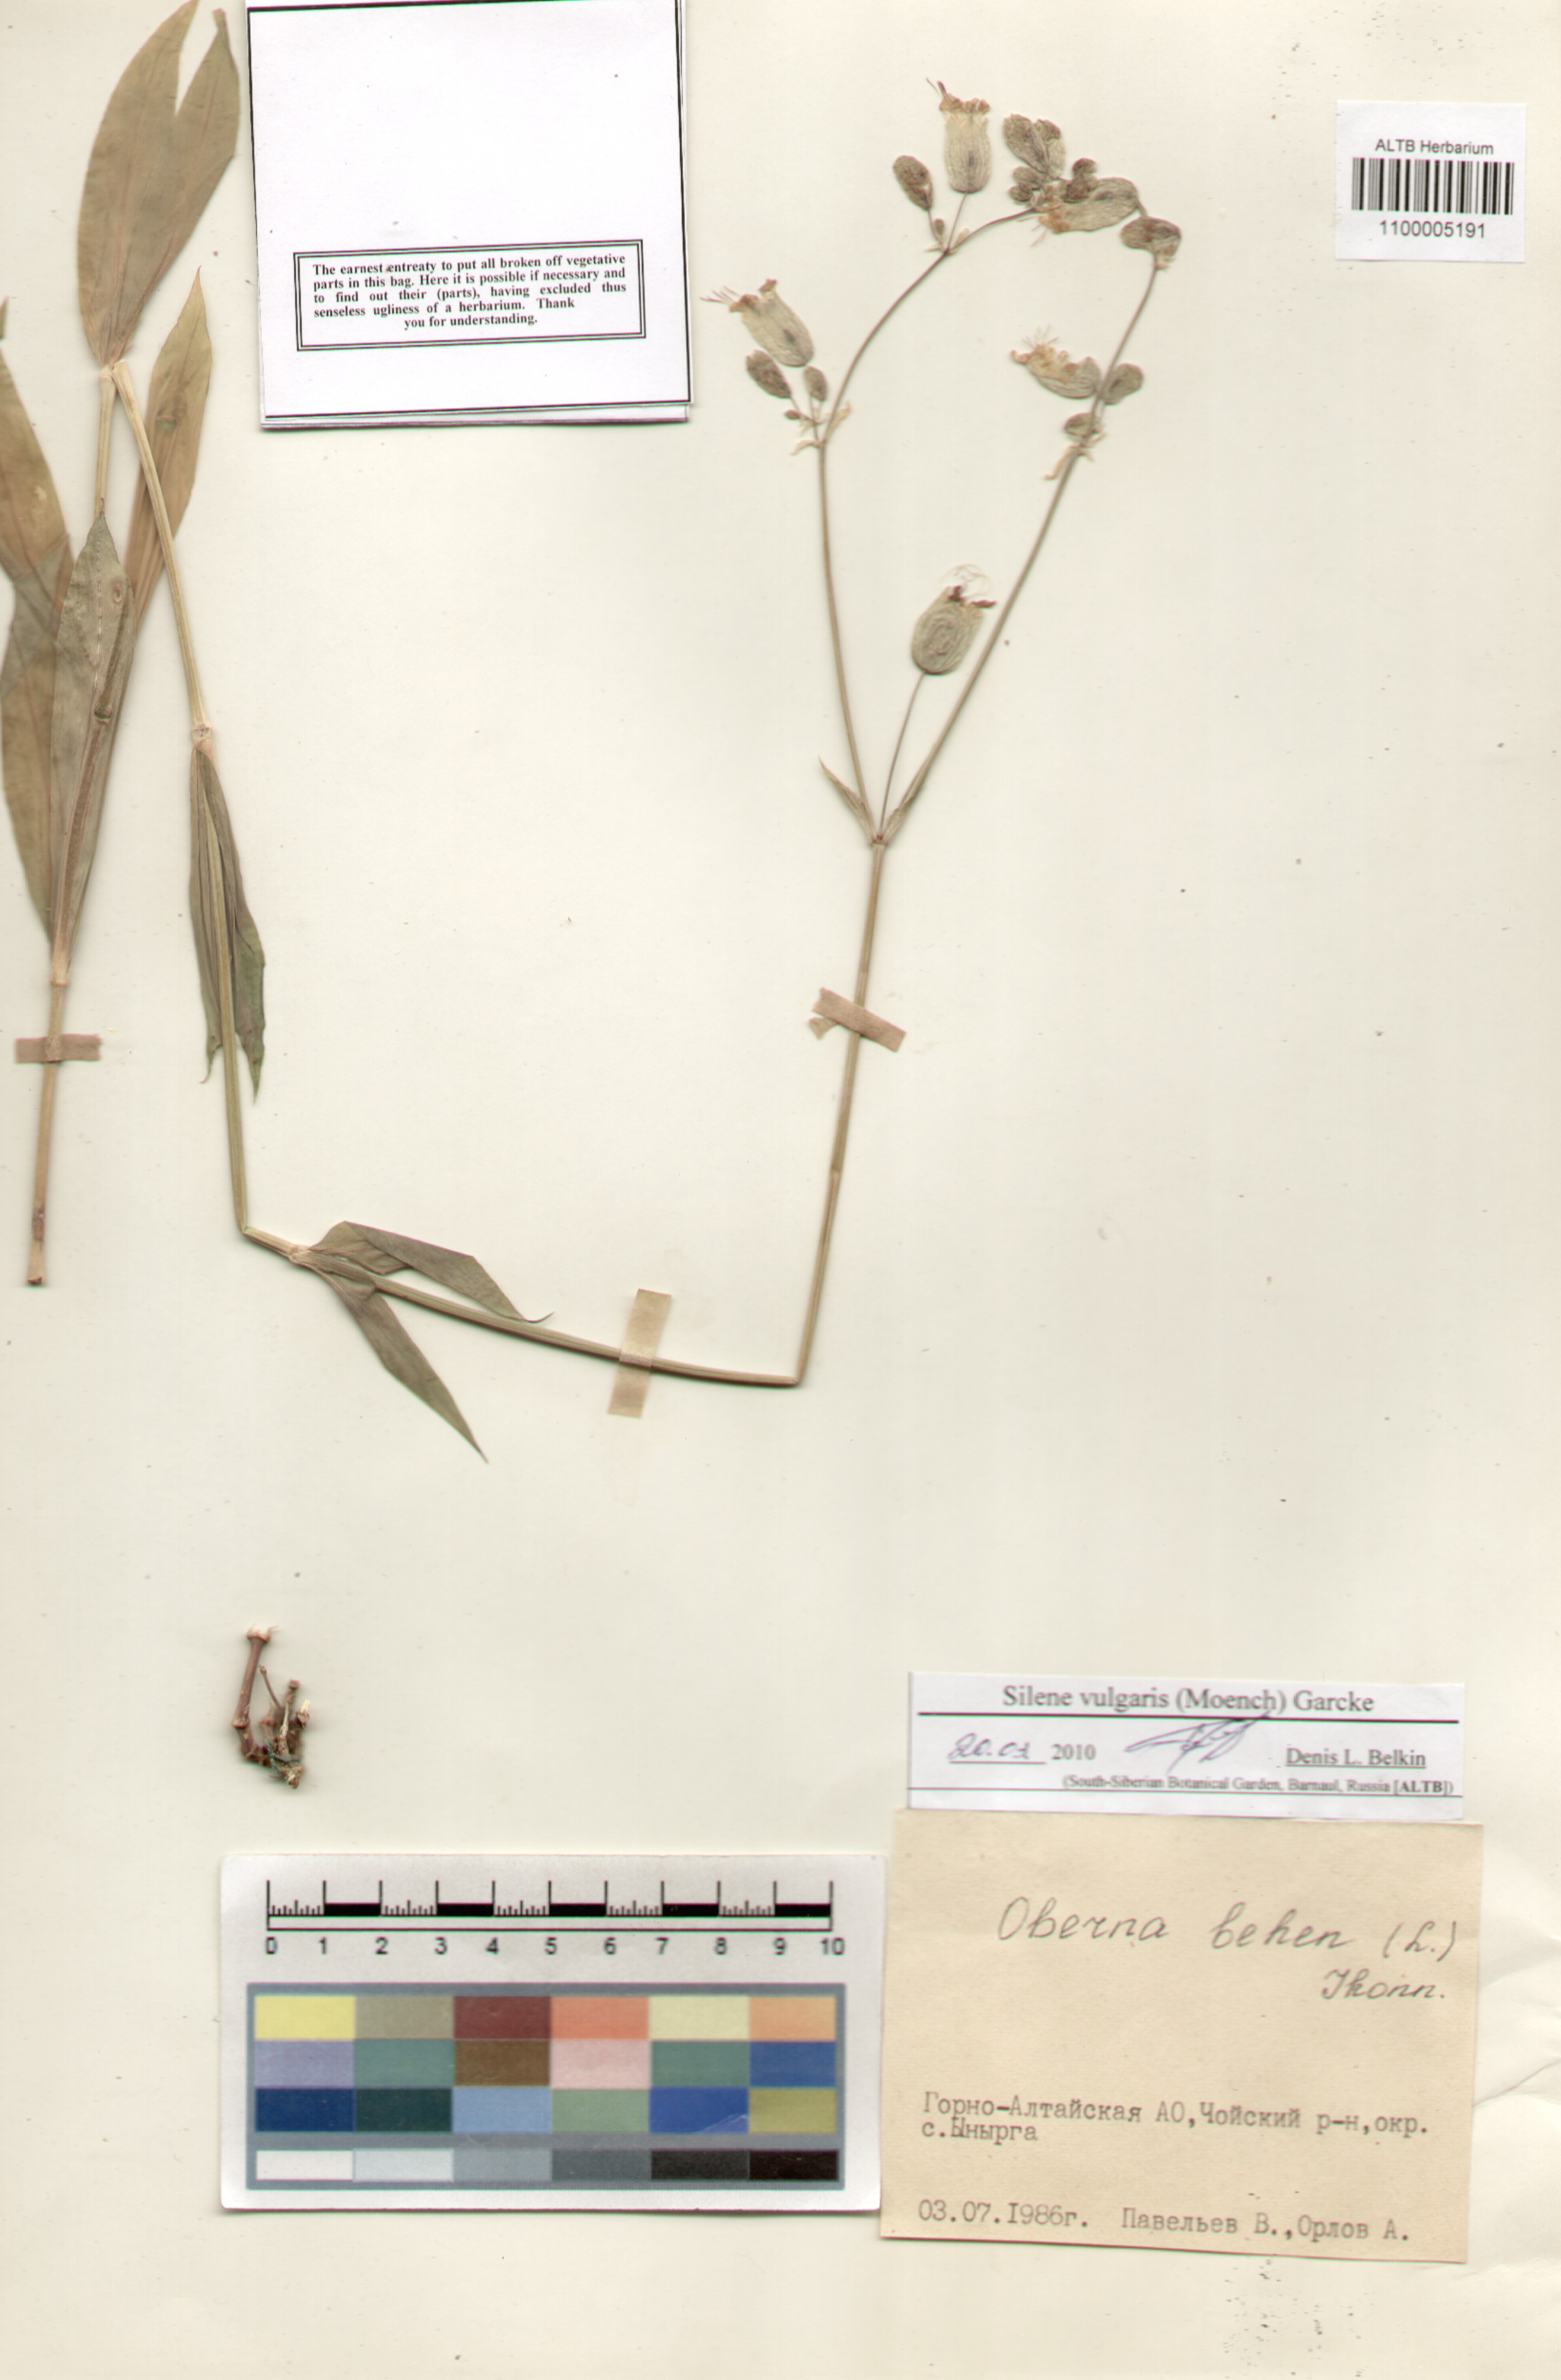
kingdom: Plantae
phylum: Tracheophyta
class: Magnoliopsida
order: Caryophyllales
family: Caryophyllaceae
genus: Silene
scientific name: Silene vulgaris
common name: Bladder campion
